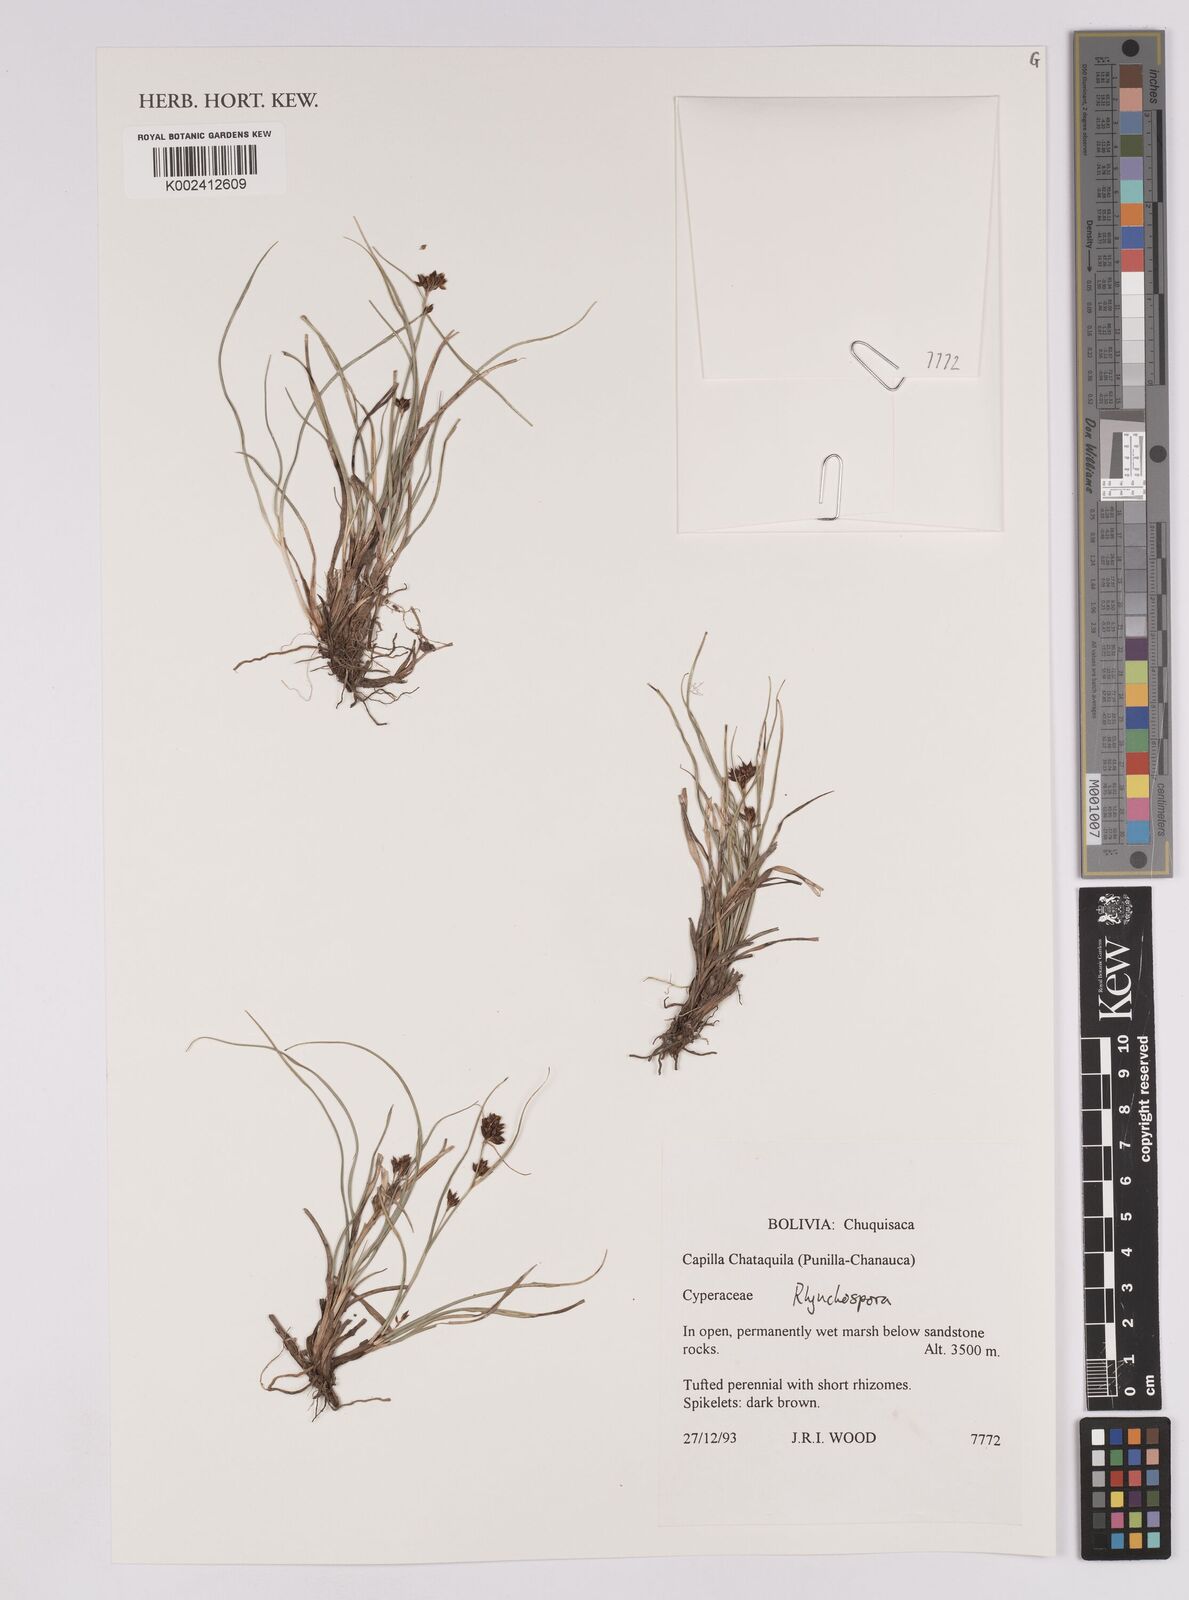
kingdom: Plantae
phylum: Tracheophyta
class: Liliopsida
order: Poales
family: Cyperaceae
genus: Rhynchospora
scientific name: Rhynchospora
